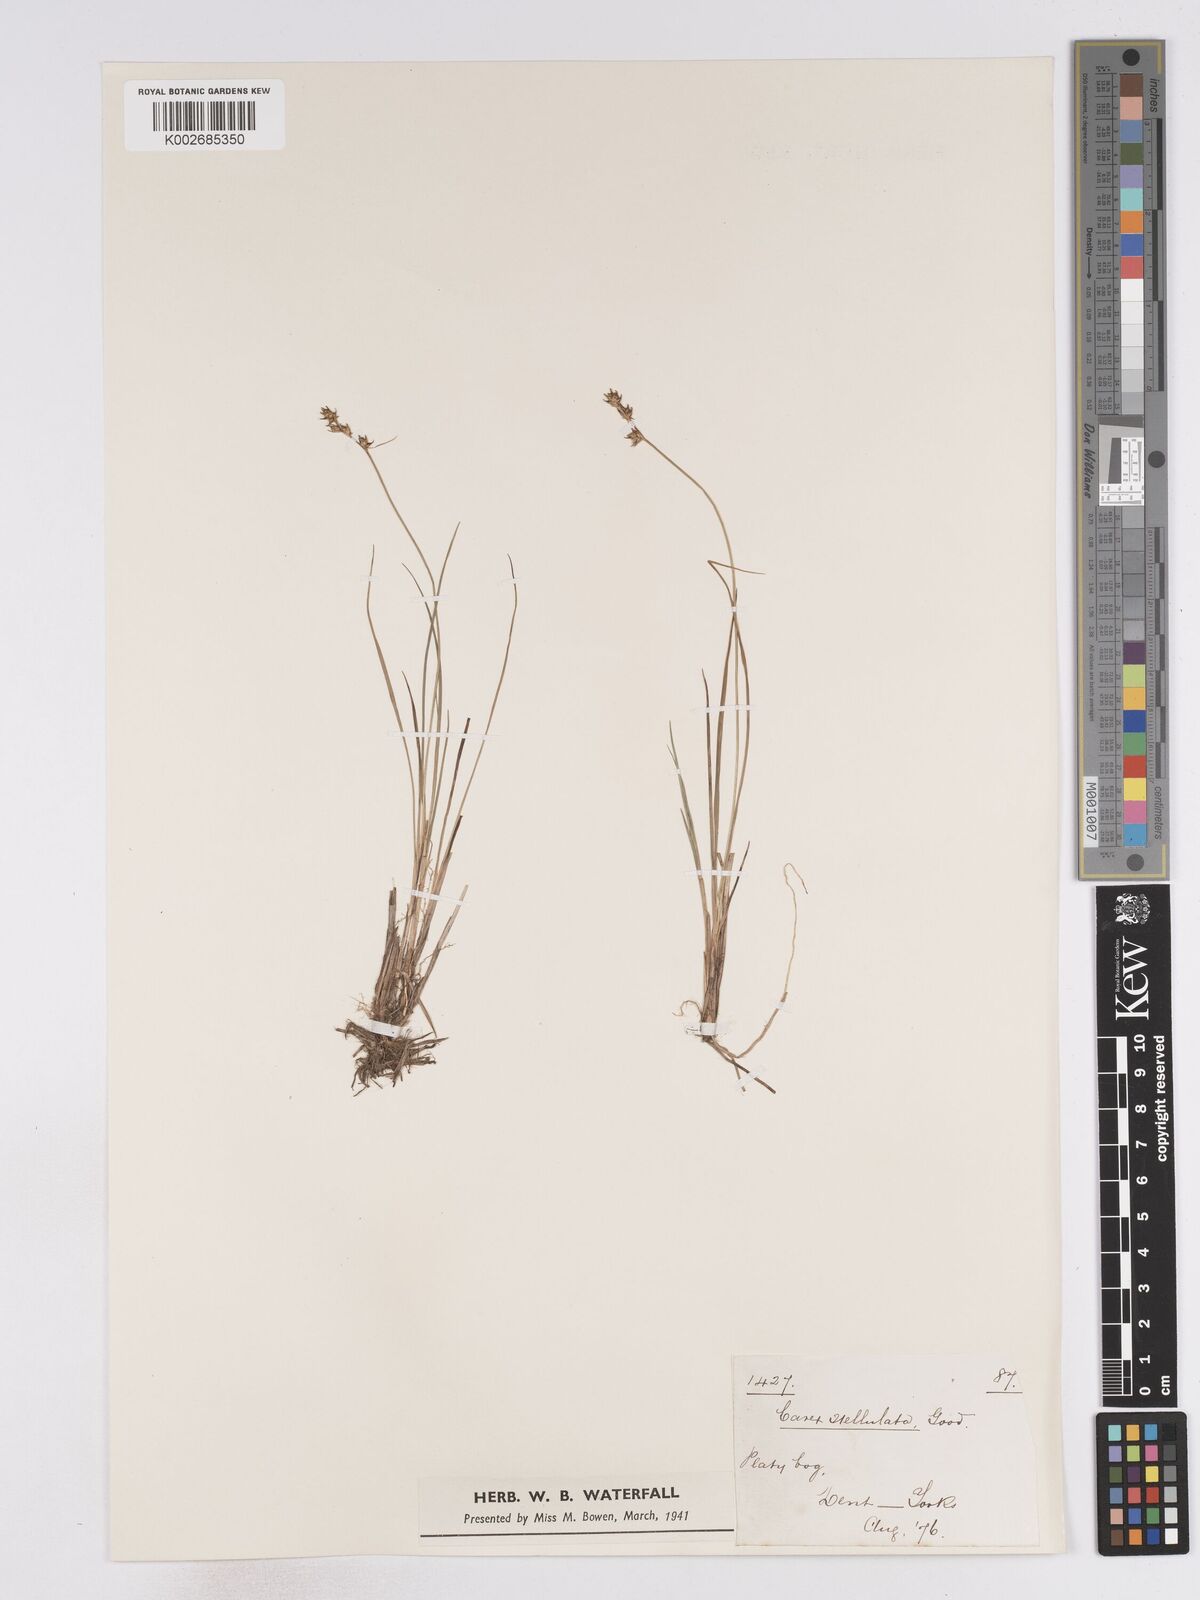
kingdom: Plantae
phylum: Tracheophyta
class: Liliopsida
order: Poales
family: Cyperaceae
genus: Carex
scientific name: Carex echinata
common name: Star sedge
